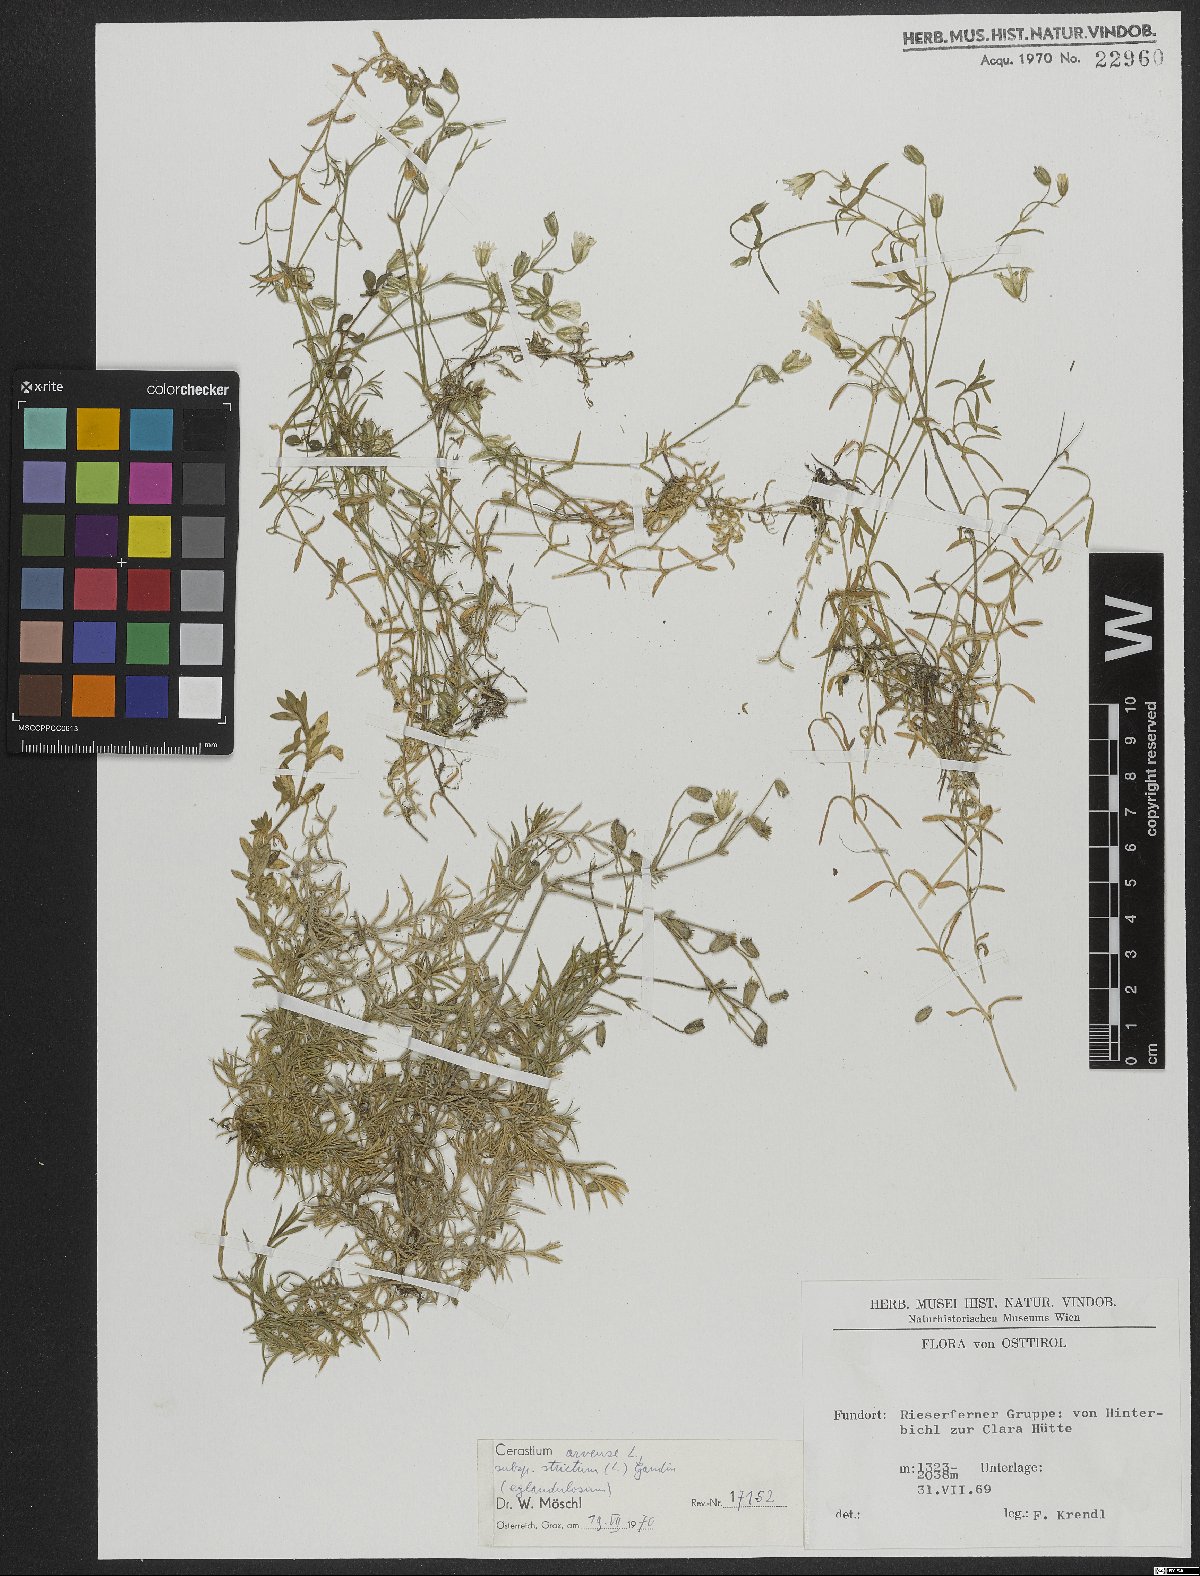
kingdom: Plantae
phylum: Tracheophyta
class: Magnoliopsida
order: Caryophyllales
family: Caryophyllaceae
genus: Cerastium
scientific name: Cerastium elongatum
